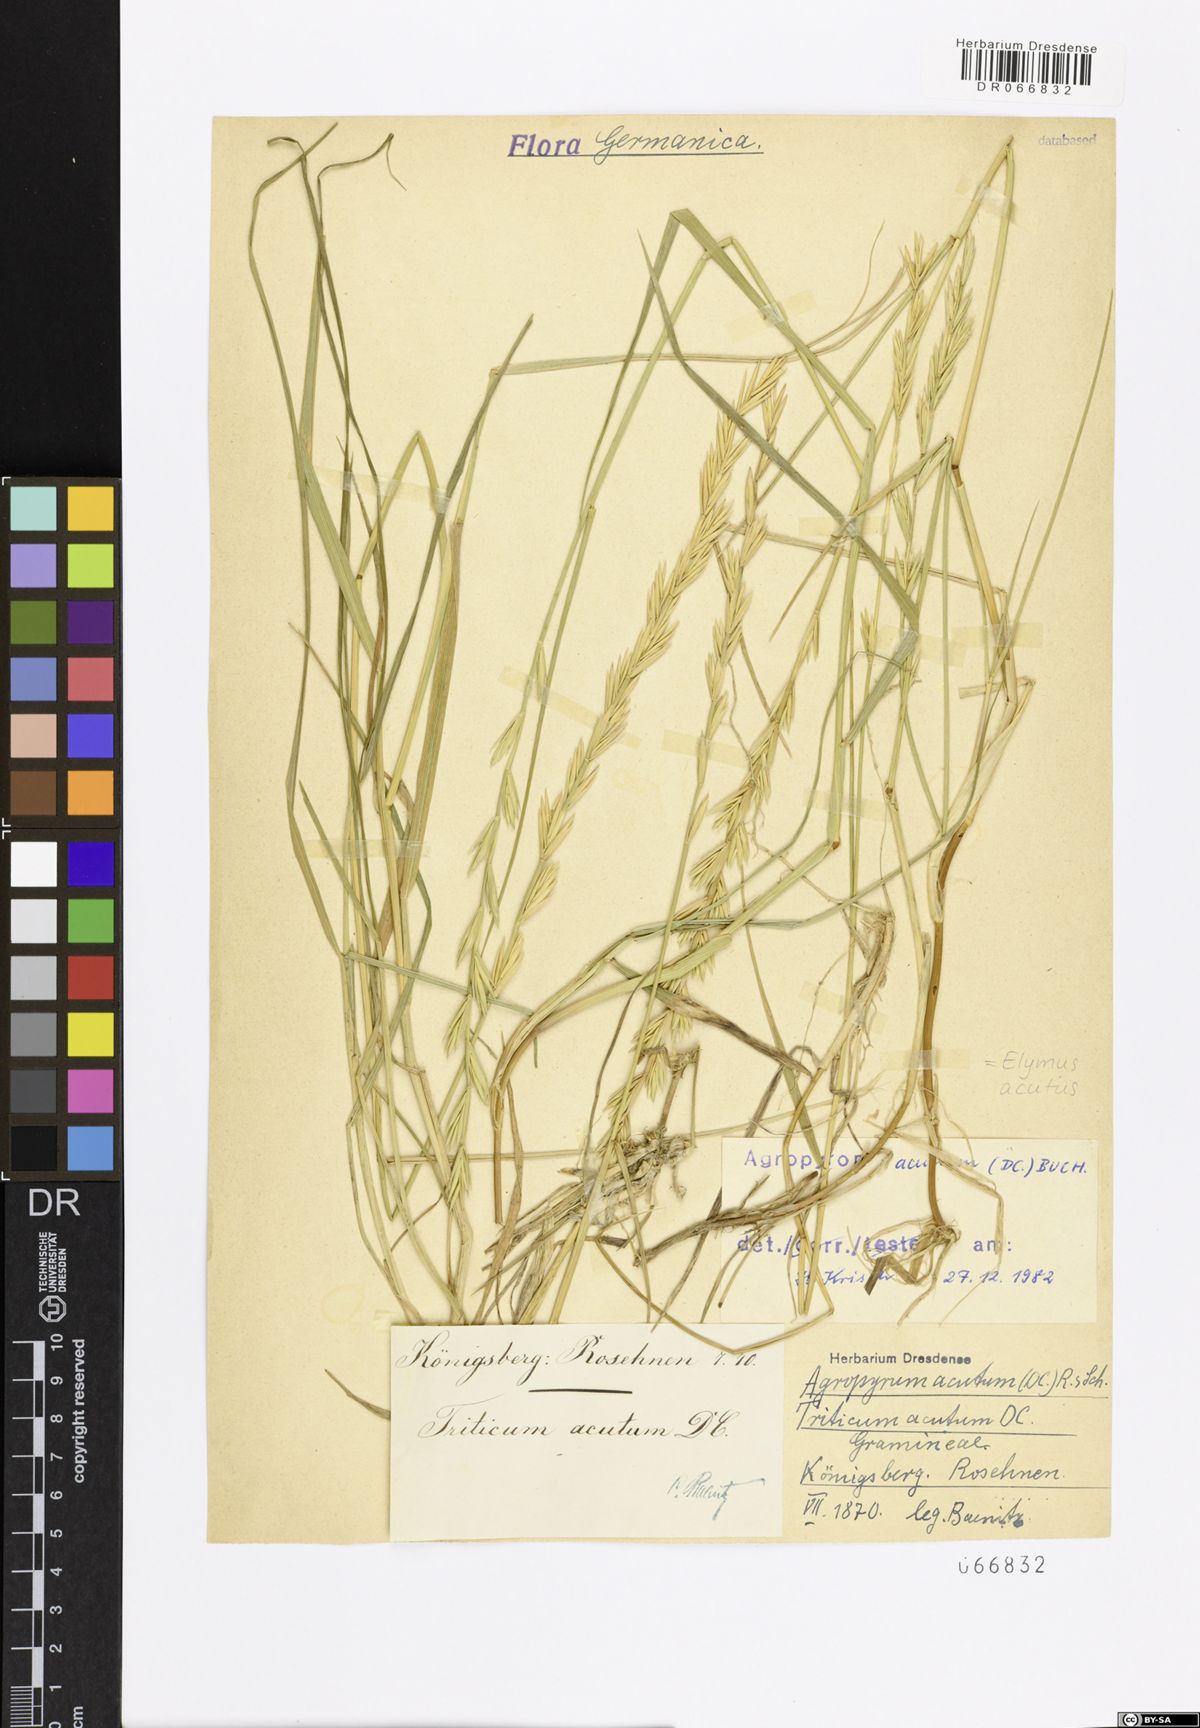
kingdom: Plantae
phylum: Tracheophyta
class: Liliopsida
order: Poales
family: Poaceae
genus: Thinopyrum
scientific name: Thinopyrum acutum
